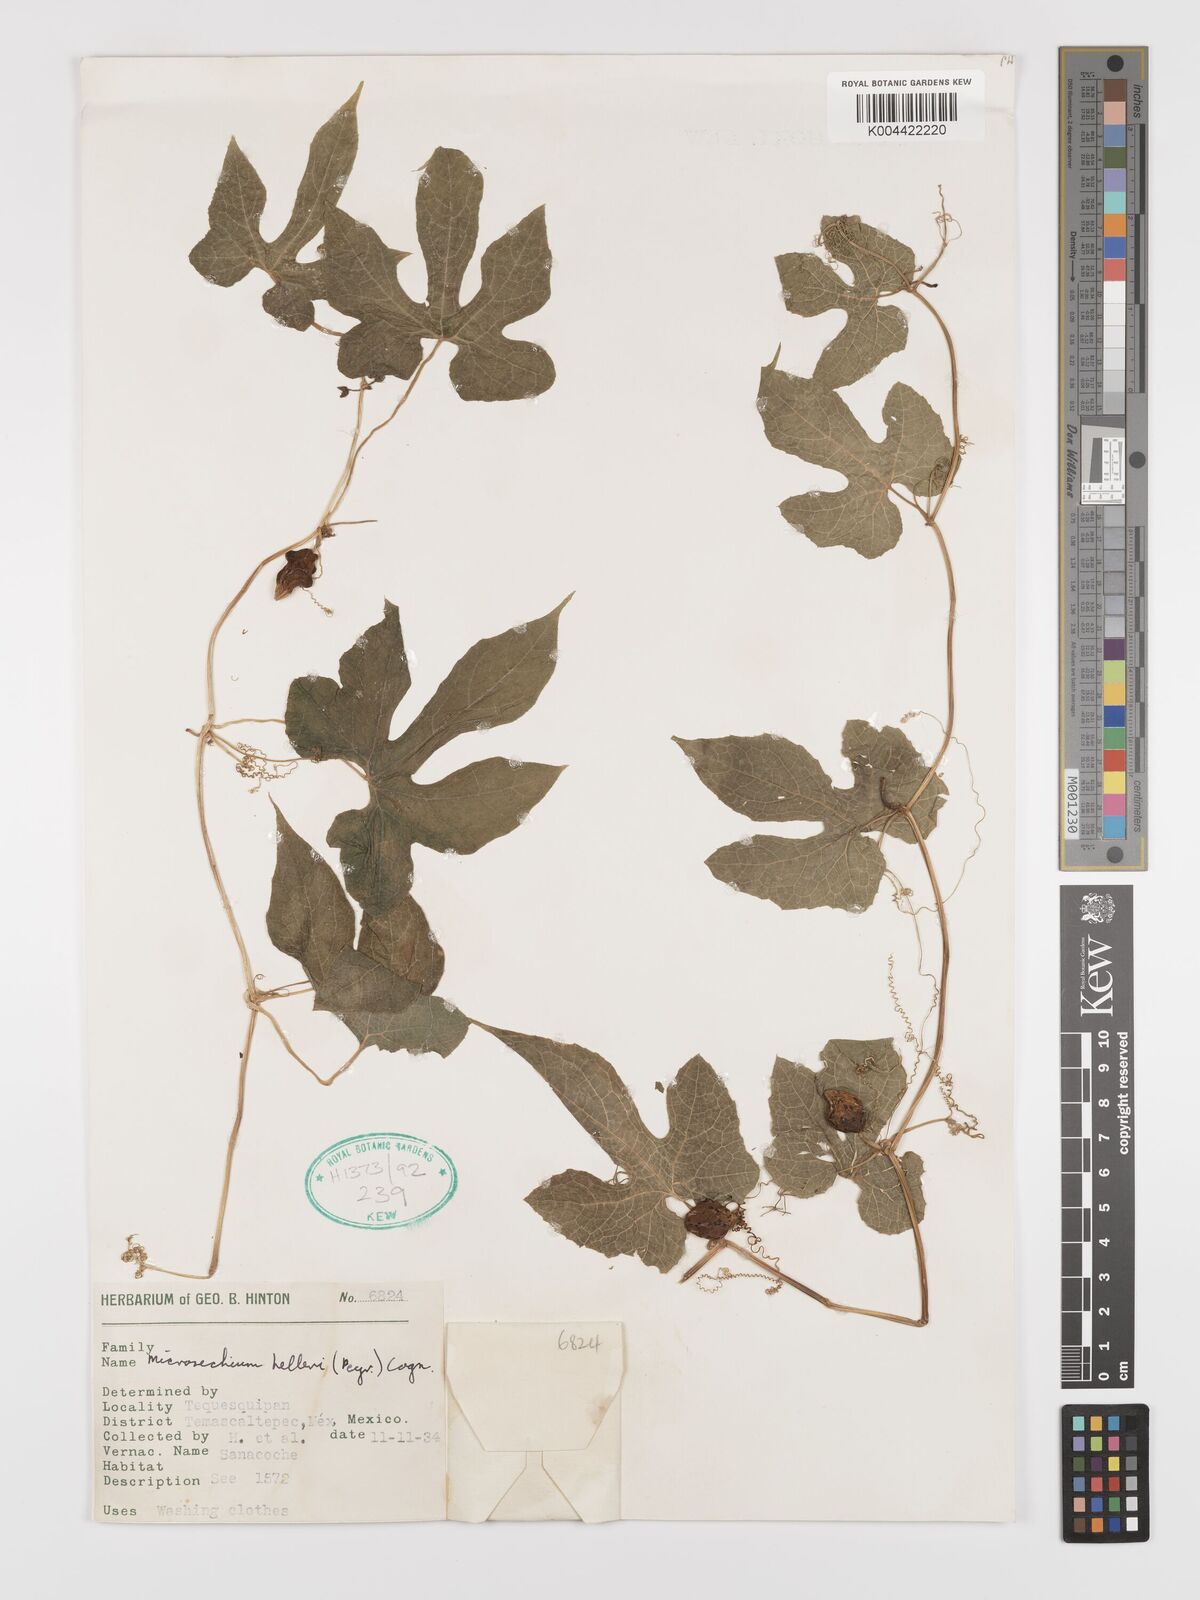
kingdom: Plantae
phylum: Tracheophyta
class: Magnoliopsida
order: Cucurbitales
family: Cucurbitaceae
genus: Microsechium
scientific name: Microsechium palmatum
